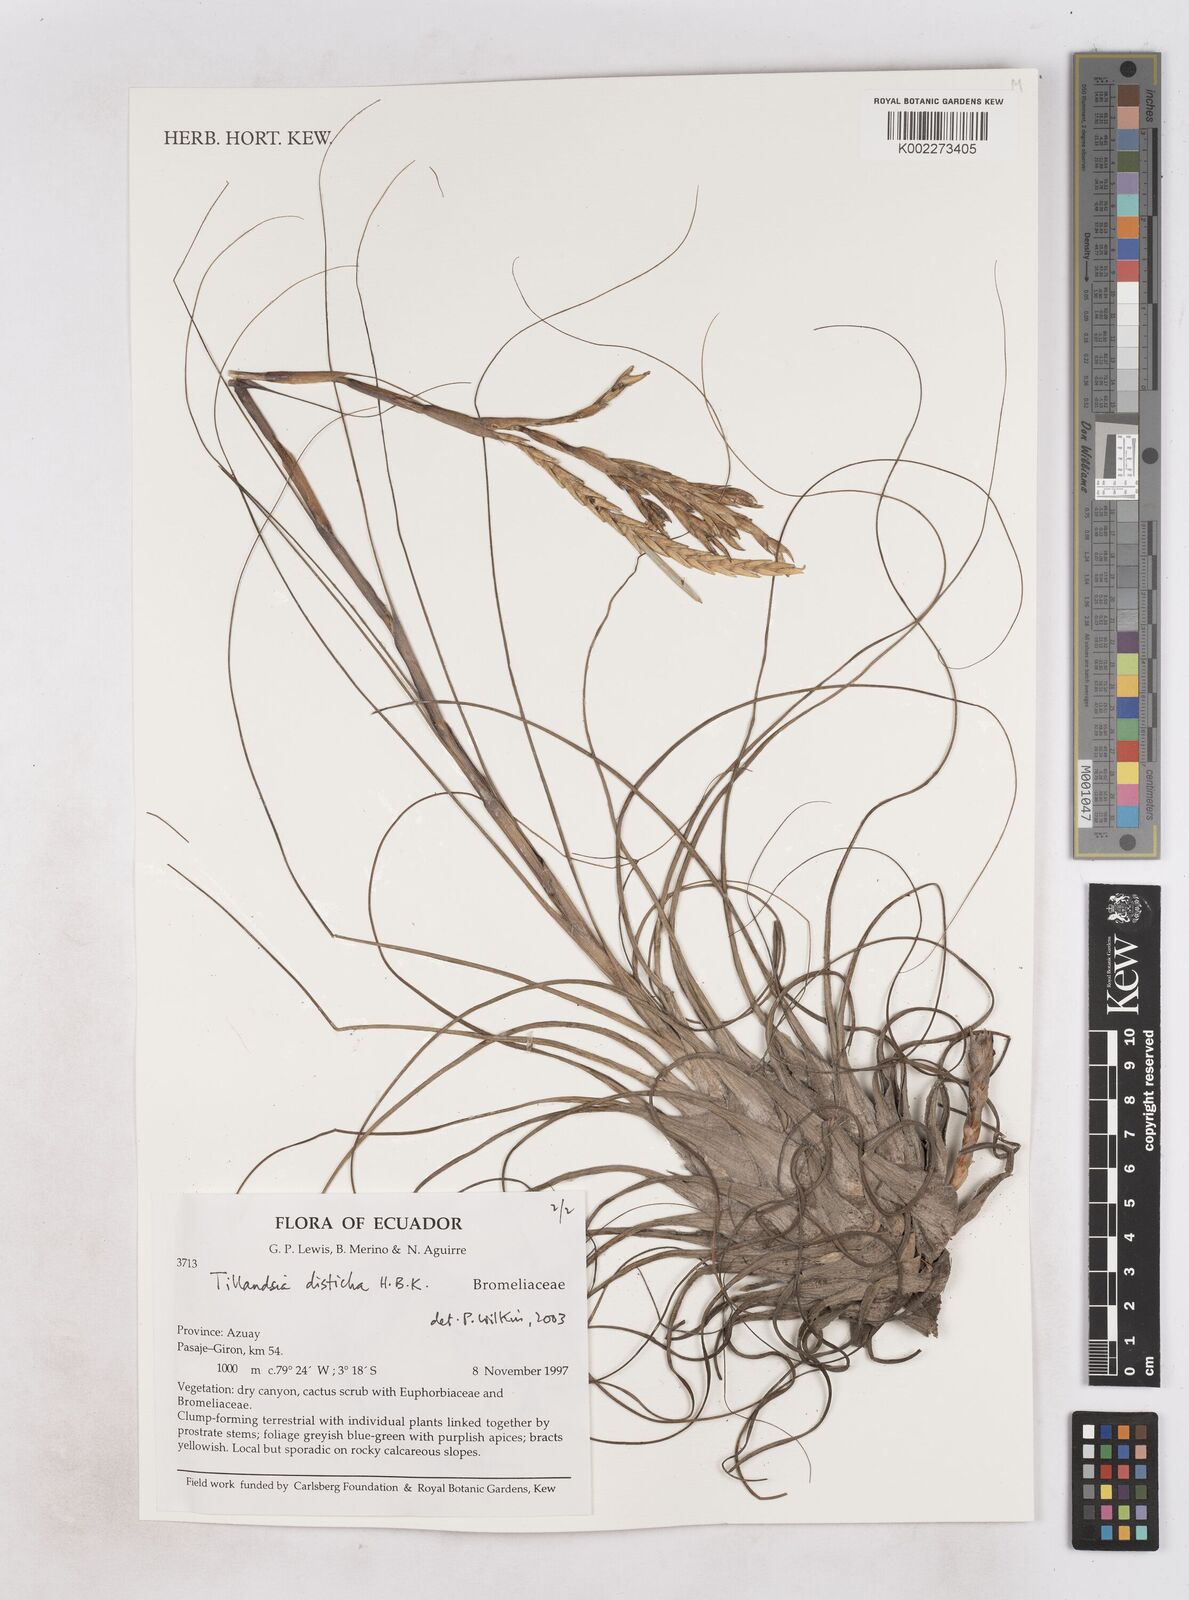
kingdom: Plantae
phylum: Tracheophyta
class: Liliopsida
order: Poales
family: Bromeliaceae
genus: Tillandsia
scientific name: Tillandsia
